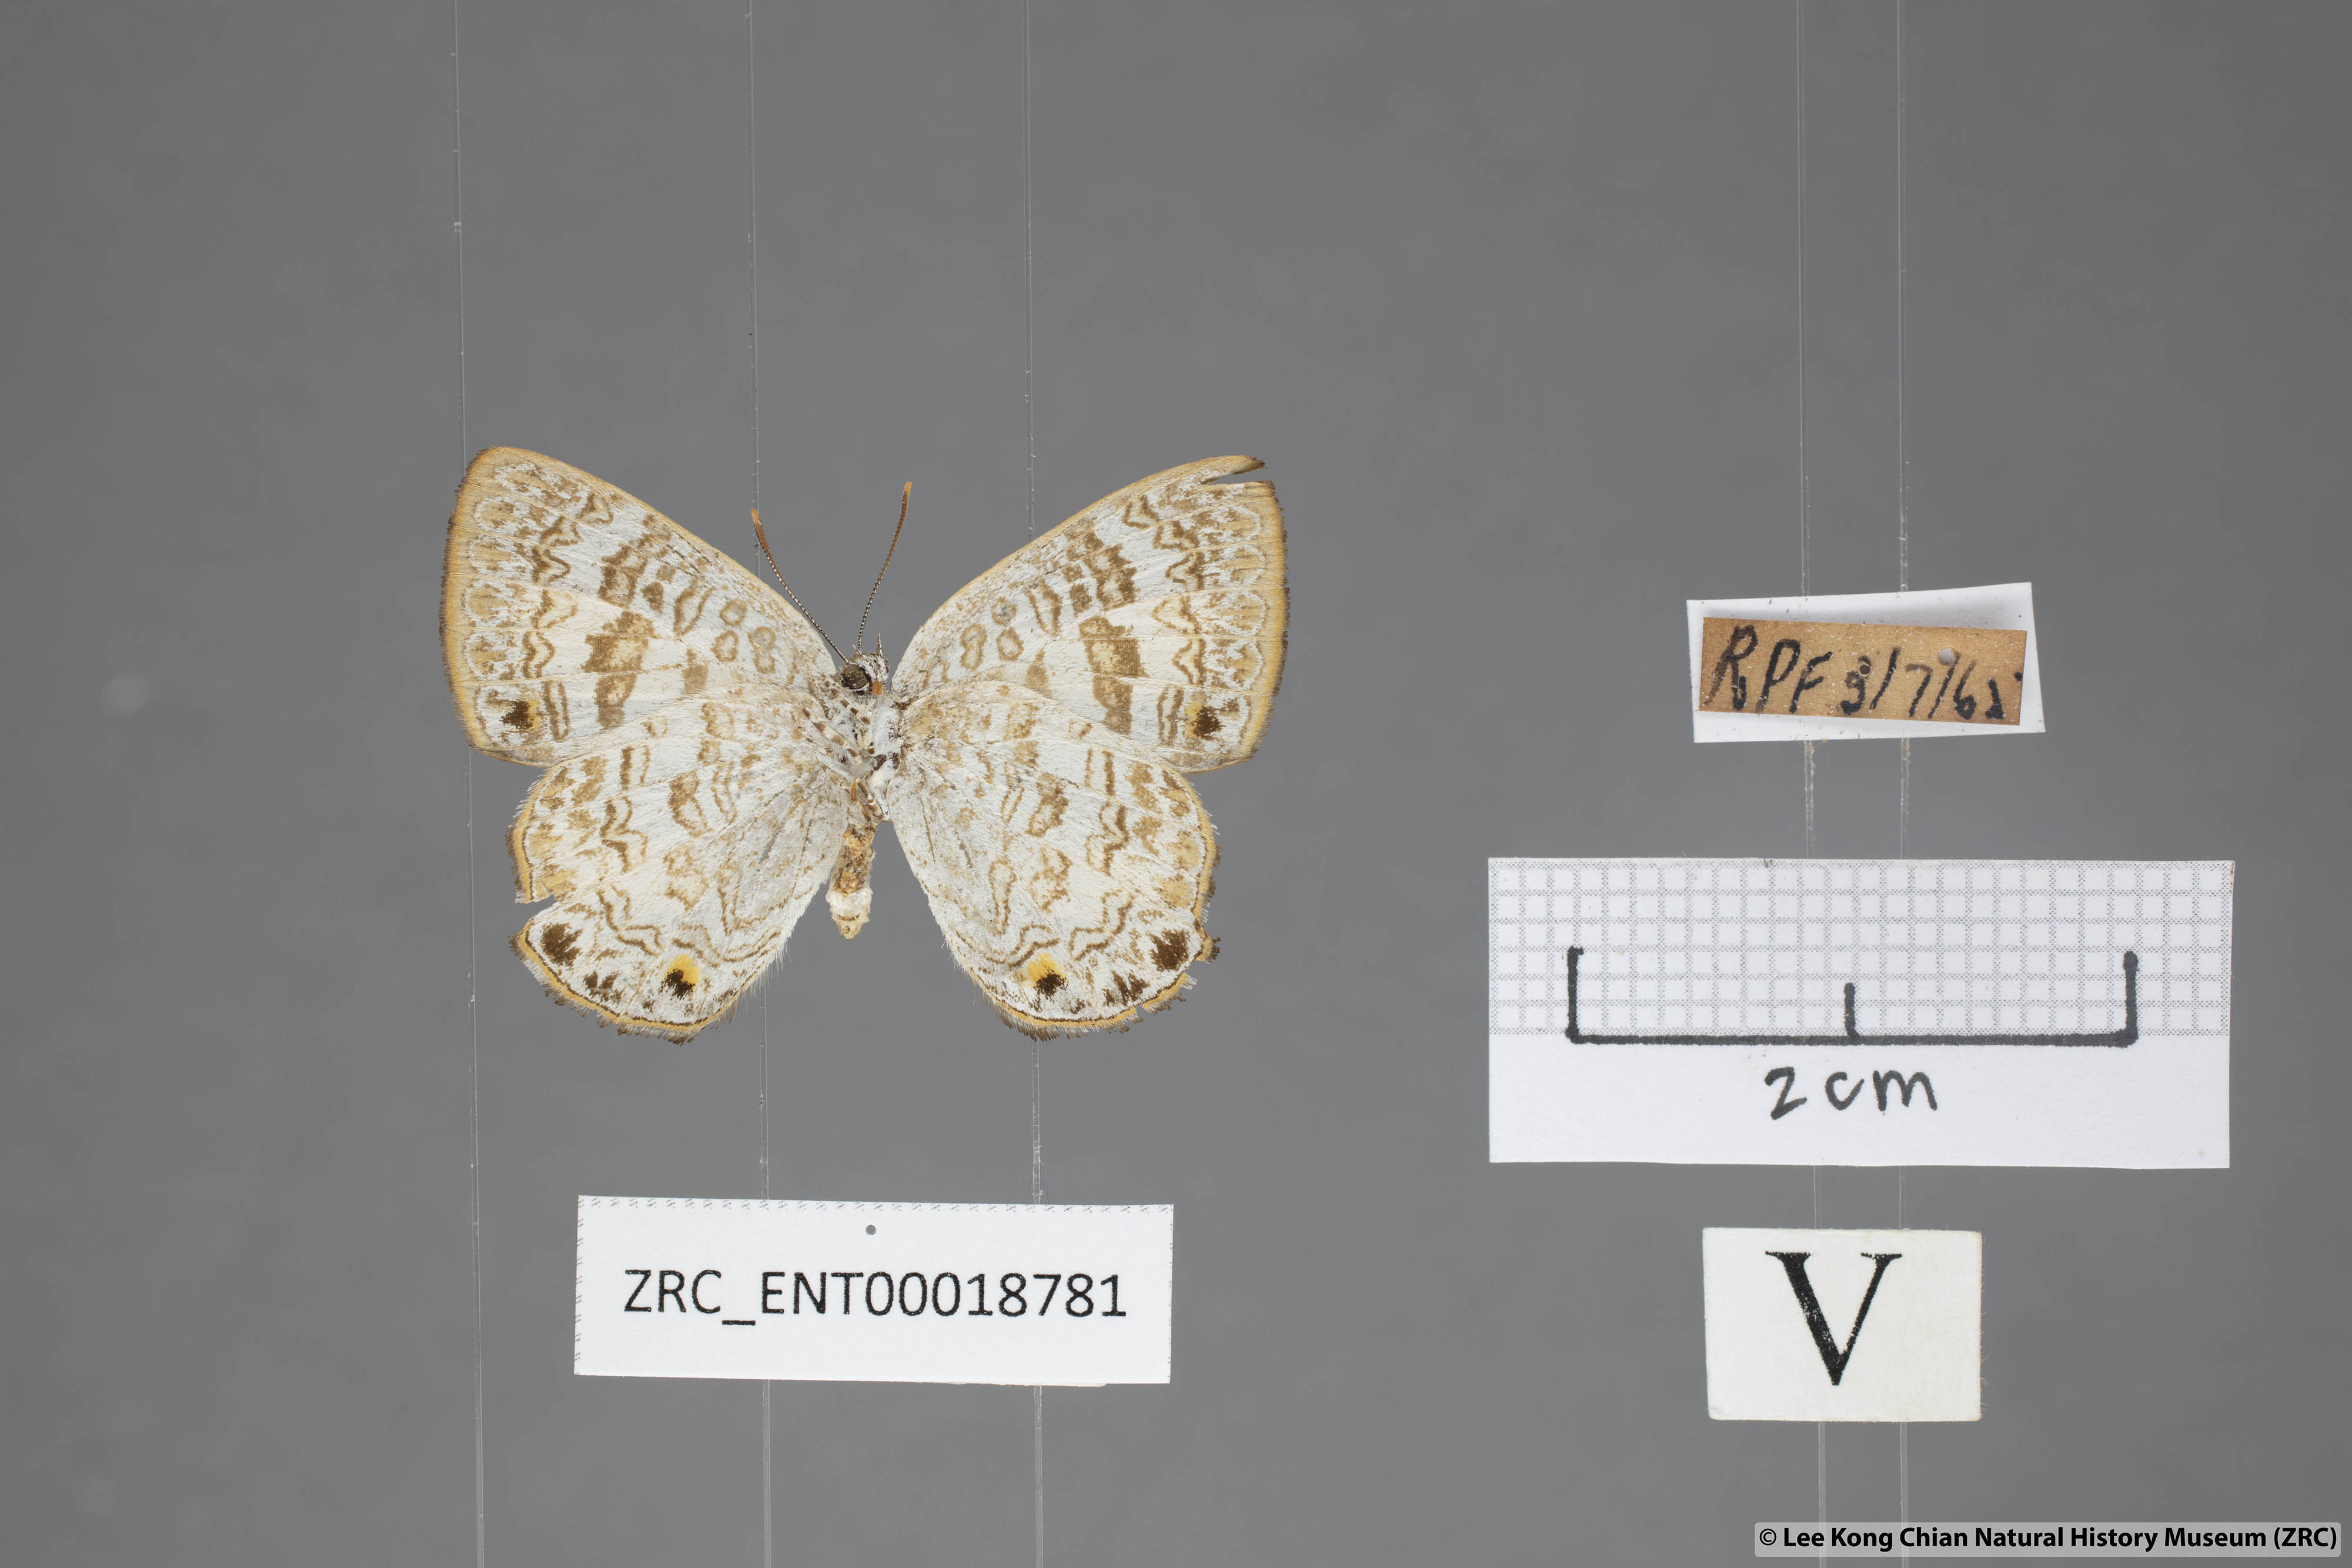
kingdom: Animalia
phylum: Arthropoda
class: Insecta
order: Lepidoptera
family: Lycaenidae
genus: Poritia
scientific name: Poritia erycinoides
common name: Blue gem
